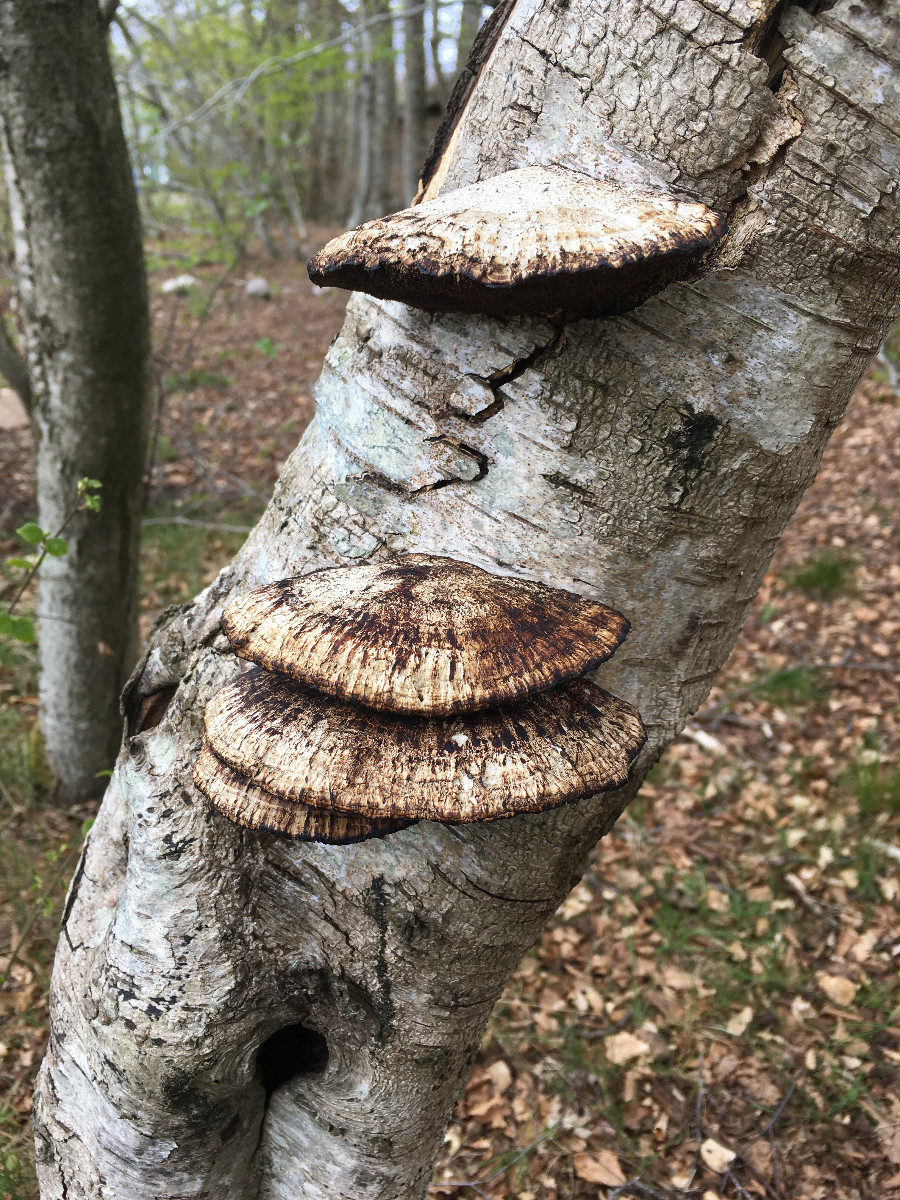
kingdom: Fungi
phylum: Basidiomycota
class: Agaricomycetes
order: Polyporales
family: Polyporaceae
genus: Daedaleopsis
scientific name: Daedaleopsis confragosa
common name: rødmende læderporesvamp
